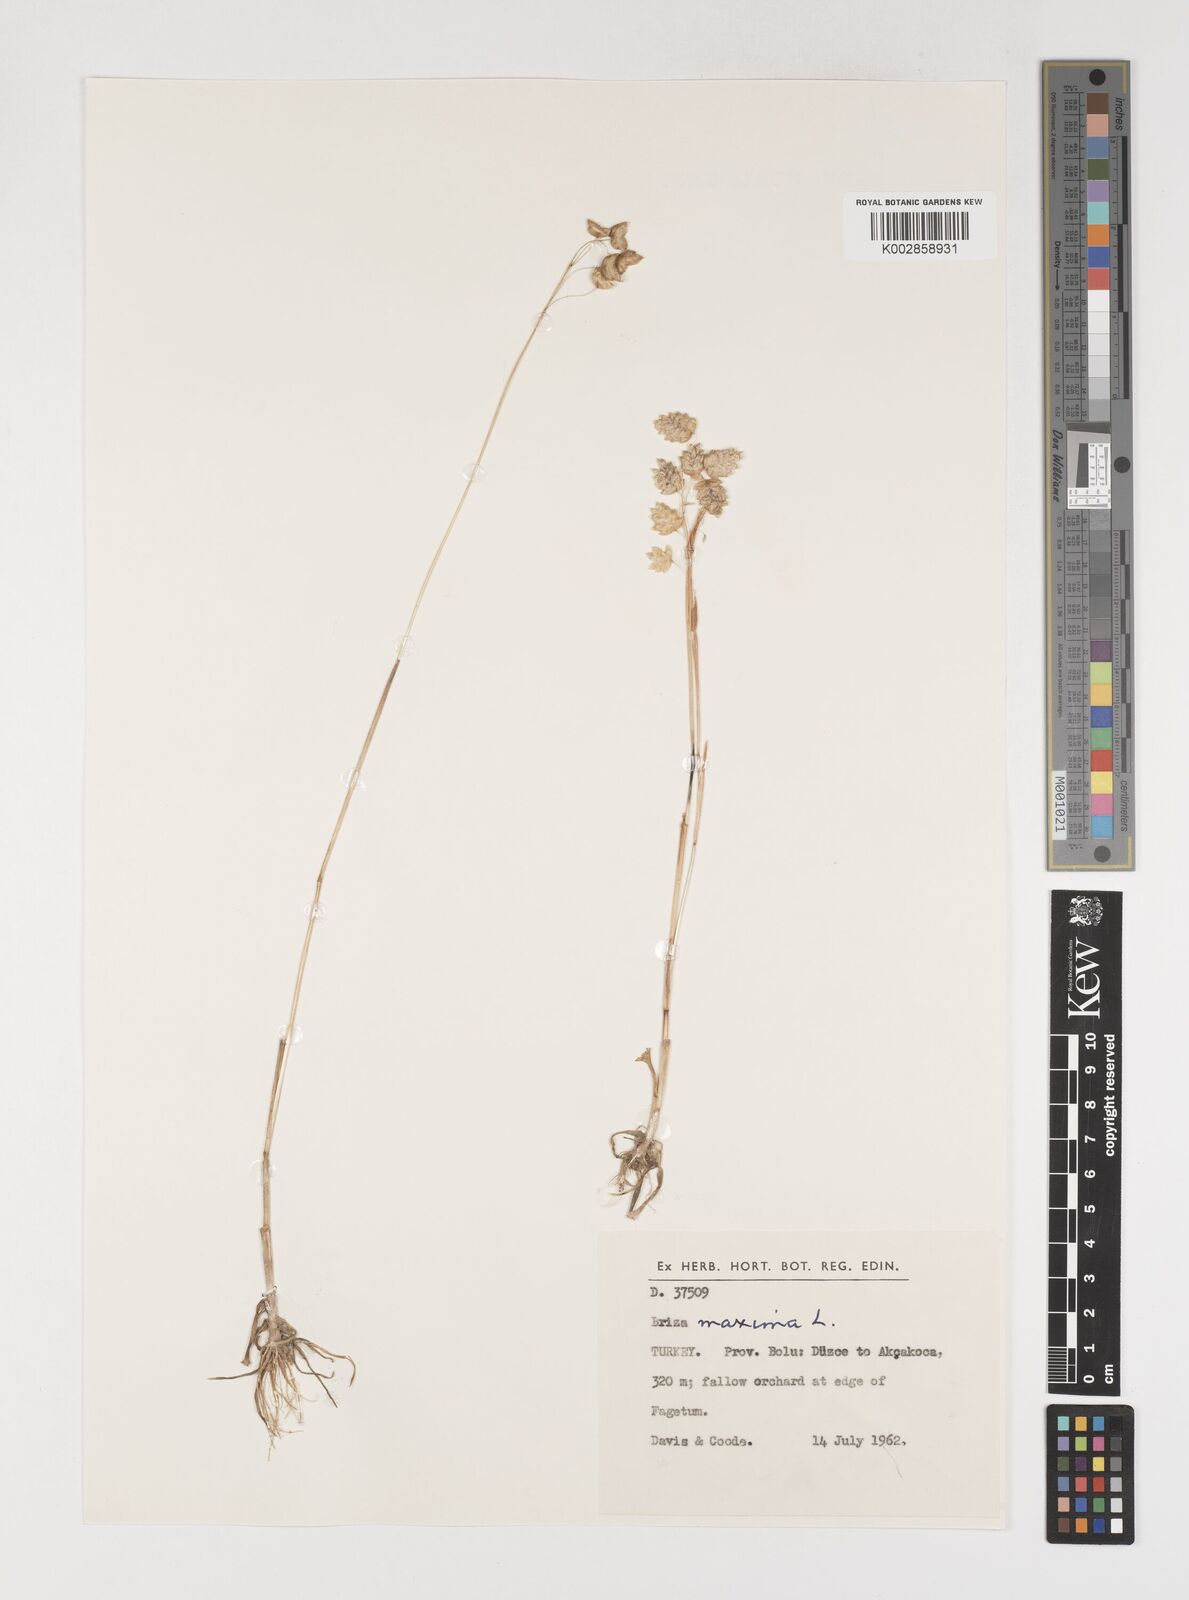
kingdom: Plantae
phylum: Tracheophyta
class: Liliopsida
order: Poales
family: Poaceae
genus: Briza
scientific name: Briza maxima
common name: Big quakinggrass
